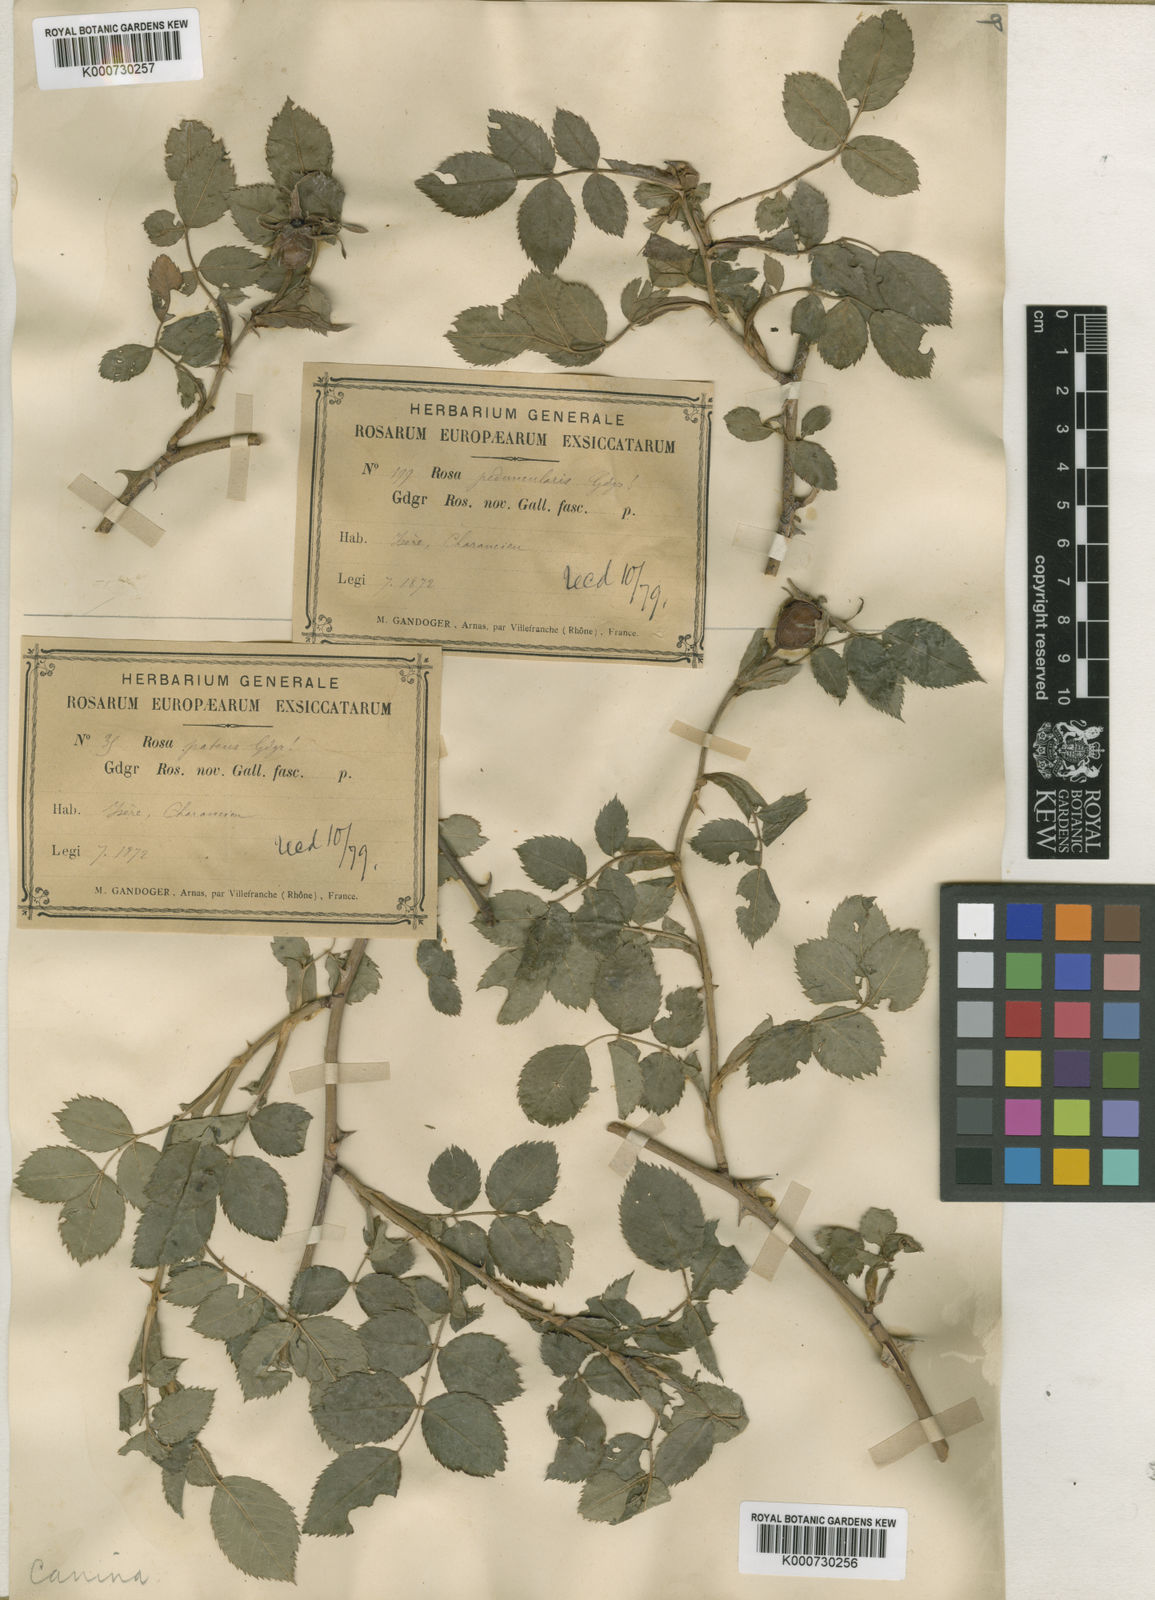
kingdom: Plantae
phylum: Tracheophyta
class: Magnoliopsida
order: Rosales
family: Rosaceae
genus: Rosa
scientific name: Rosa canina
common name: Dog rose
